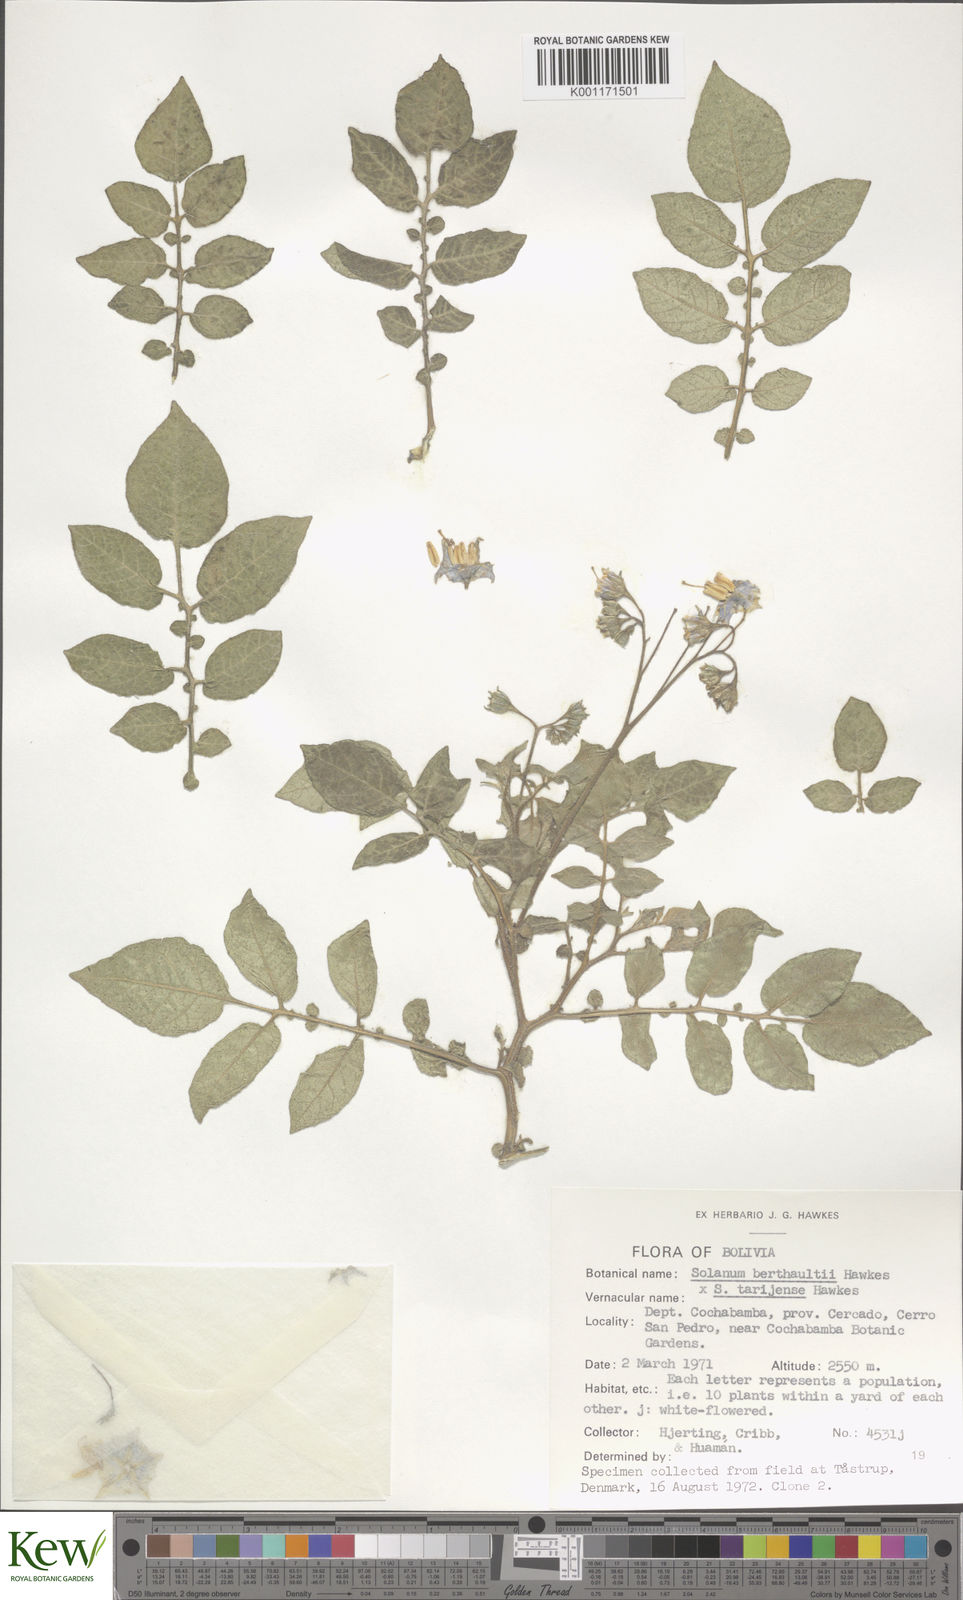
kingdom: Plantae
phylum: Tracheophyta
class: Magnoliopsida
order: Solanales
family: Solanaceae
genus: Solanum
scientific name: Solanum tarijense
